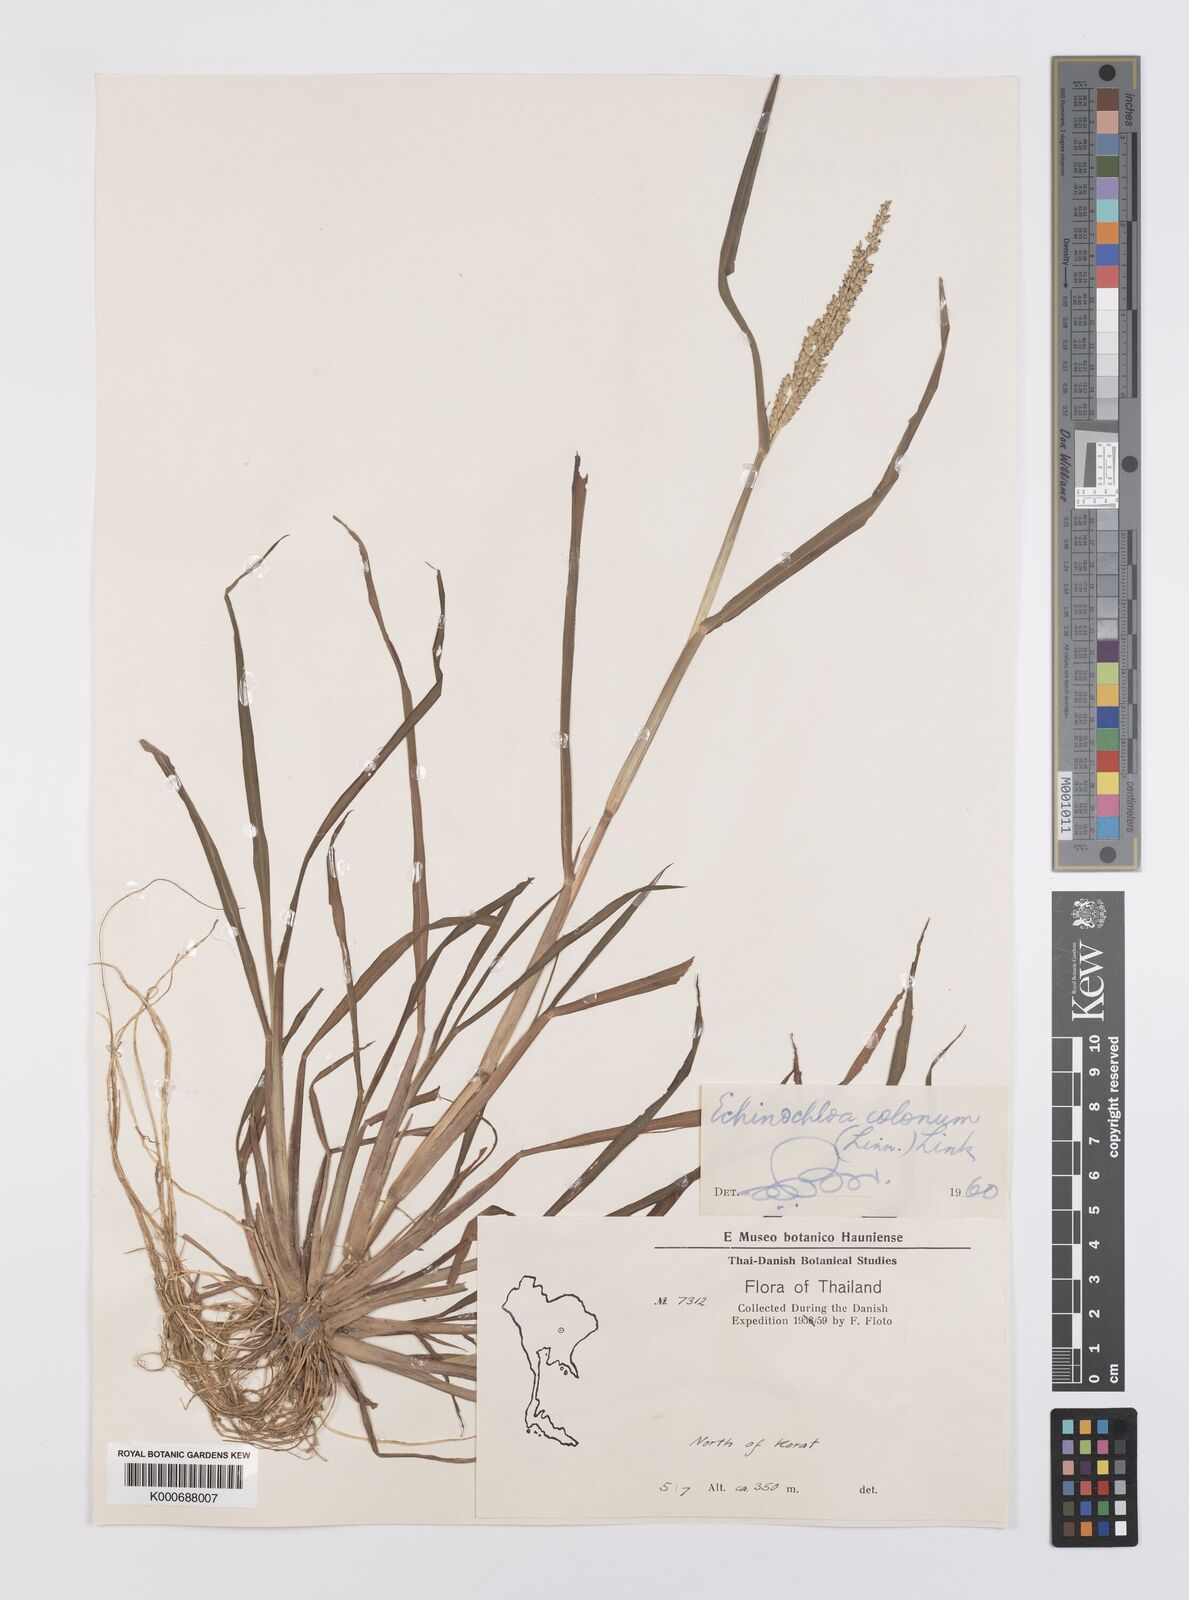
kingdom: Plantae
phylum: Tracheophyta
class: Liliopsida
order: Poales
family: Poaceae
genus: Echinochloa
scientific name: Echinochloa colonum
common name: Jungle rice
